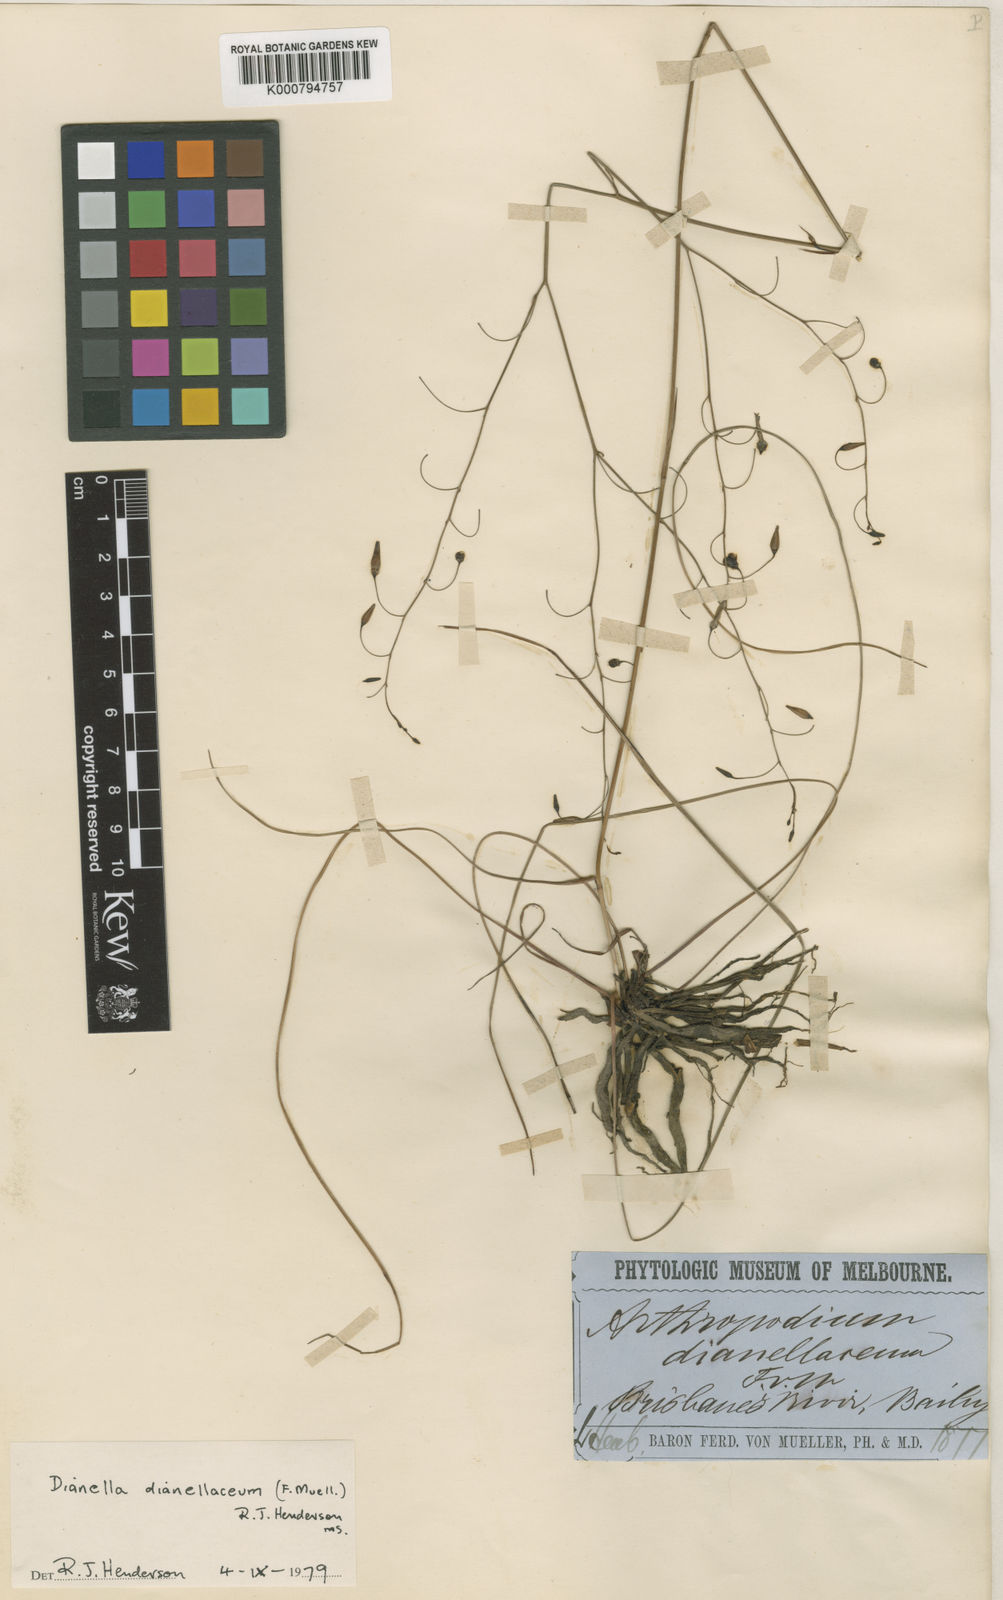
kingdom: Plantae
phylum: Tracheophyta
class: Liliopsida
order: Asparagales
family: Asphodelaceae
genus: Dianella
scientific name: Dianella rara
